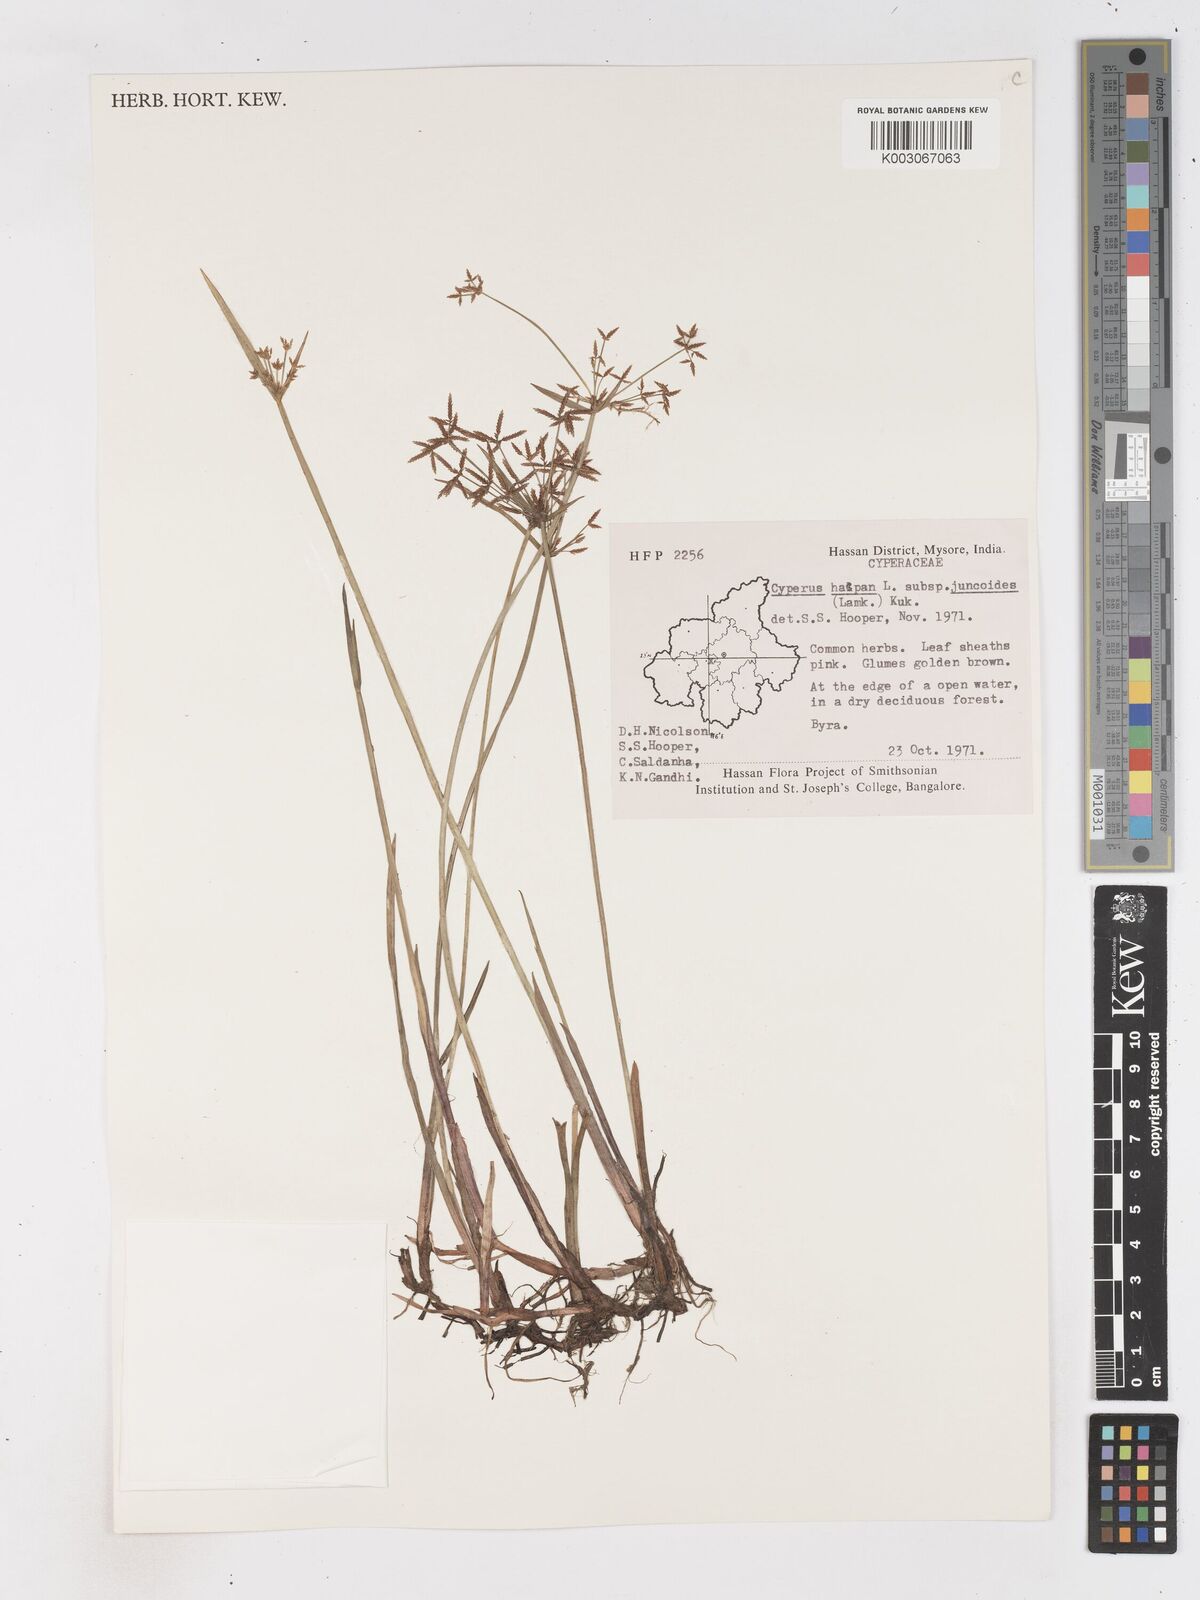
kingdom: Plantae
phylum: Tracheophyta
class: Liliopsida
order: Poales
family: Cyperaceae
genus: Cyperus
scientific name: Cyperus haspan
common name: Haspan flatsedge
